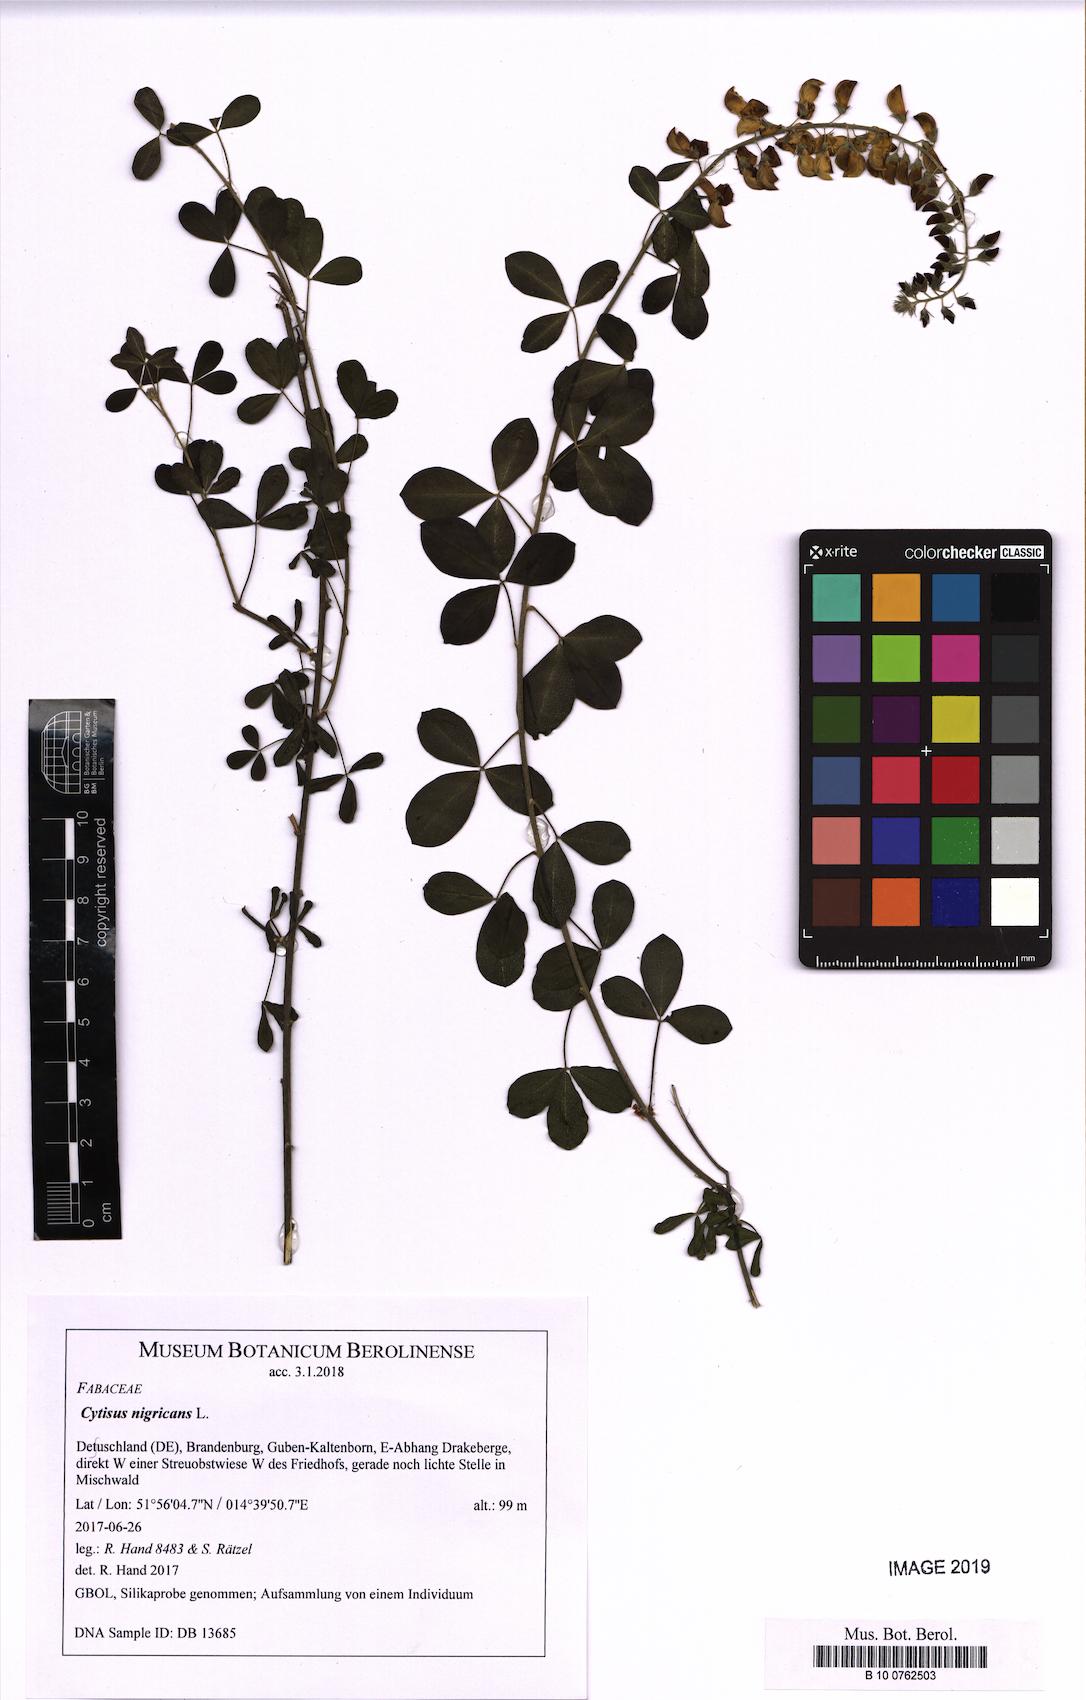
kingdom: Plantae
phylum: Tracheophyta
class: Magnoliopsida
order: Fabales
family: Fabaceae
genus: Cytisus
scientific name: Cytisus nigricans
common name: Black broom
